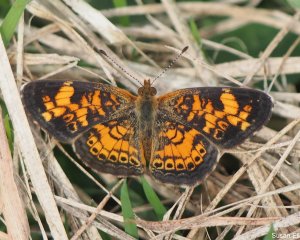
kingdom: Animalia
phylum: Arthropoda
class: Insecta
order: Lepidoptera
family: Nymphalidae
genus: Phyciodes
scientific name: Phyciodes
